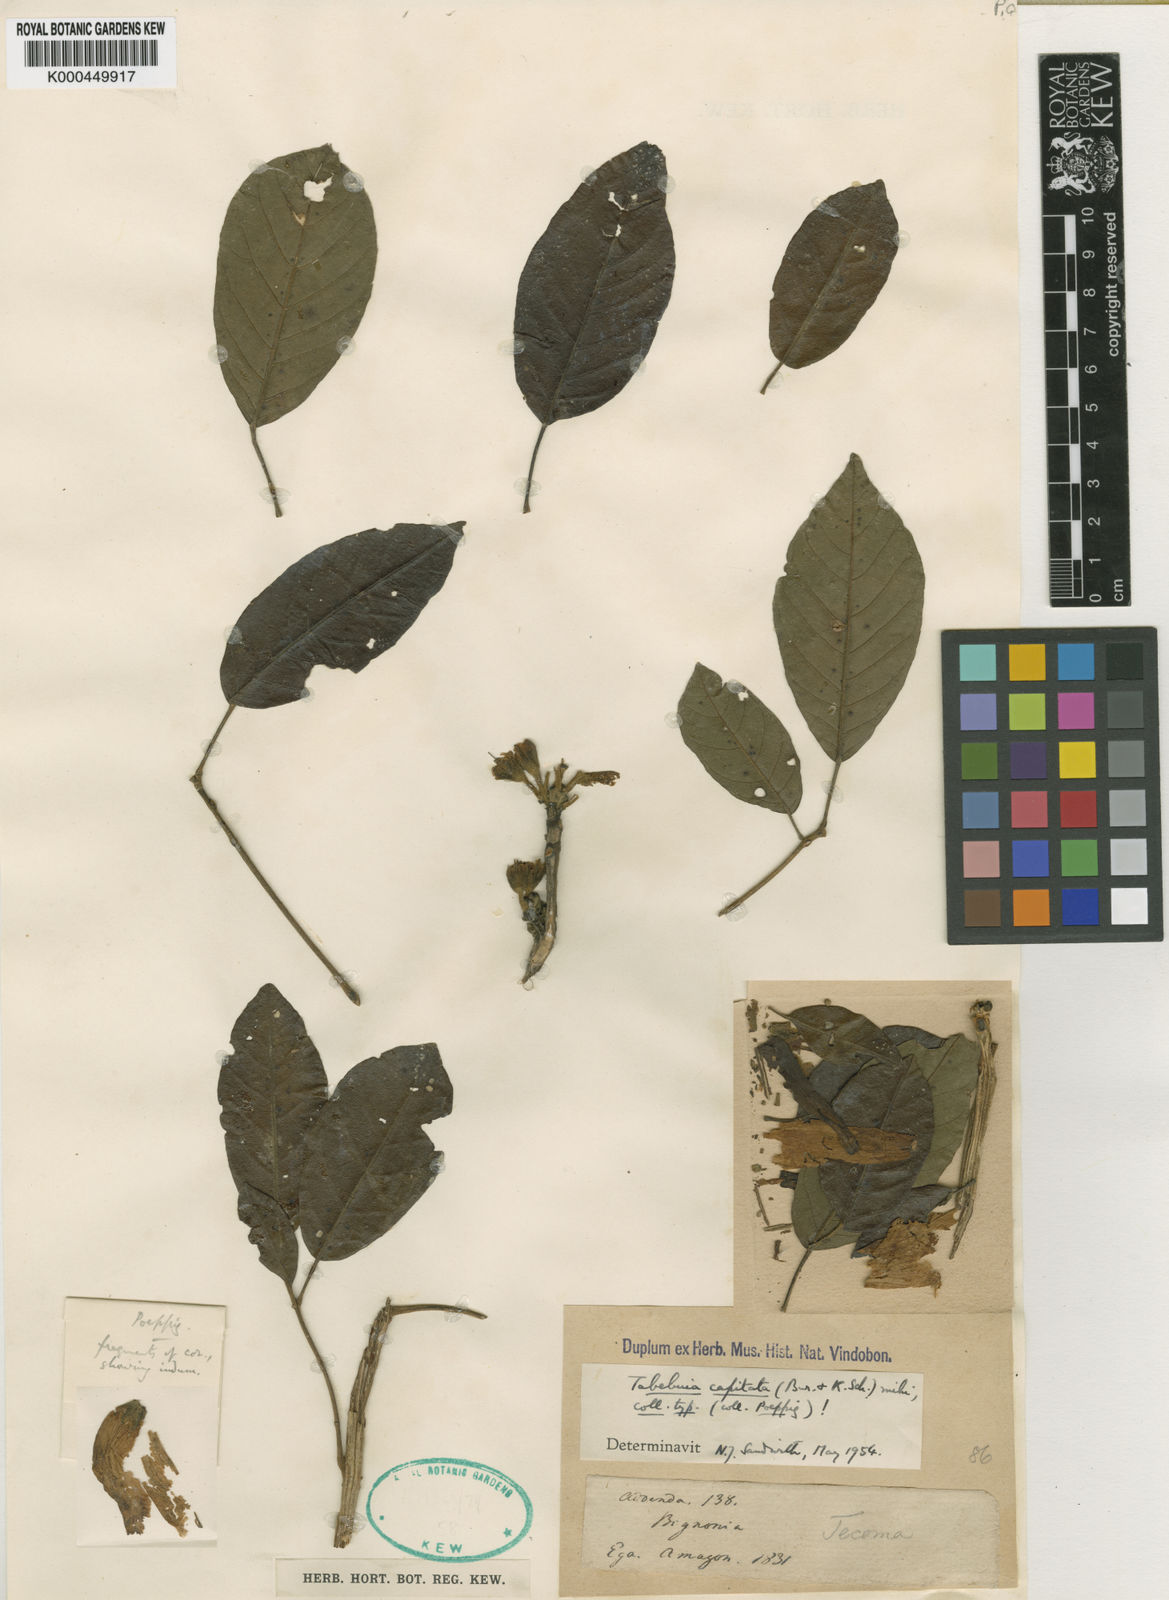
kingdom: Plantae
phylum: Tracheophyta
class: Magnoliopsida
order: Lamiales
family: Bignoniaceae
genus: Handroanthus
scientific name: Handroanthus capitatus
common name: Trumpet trees
